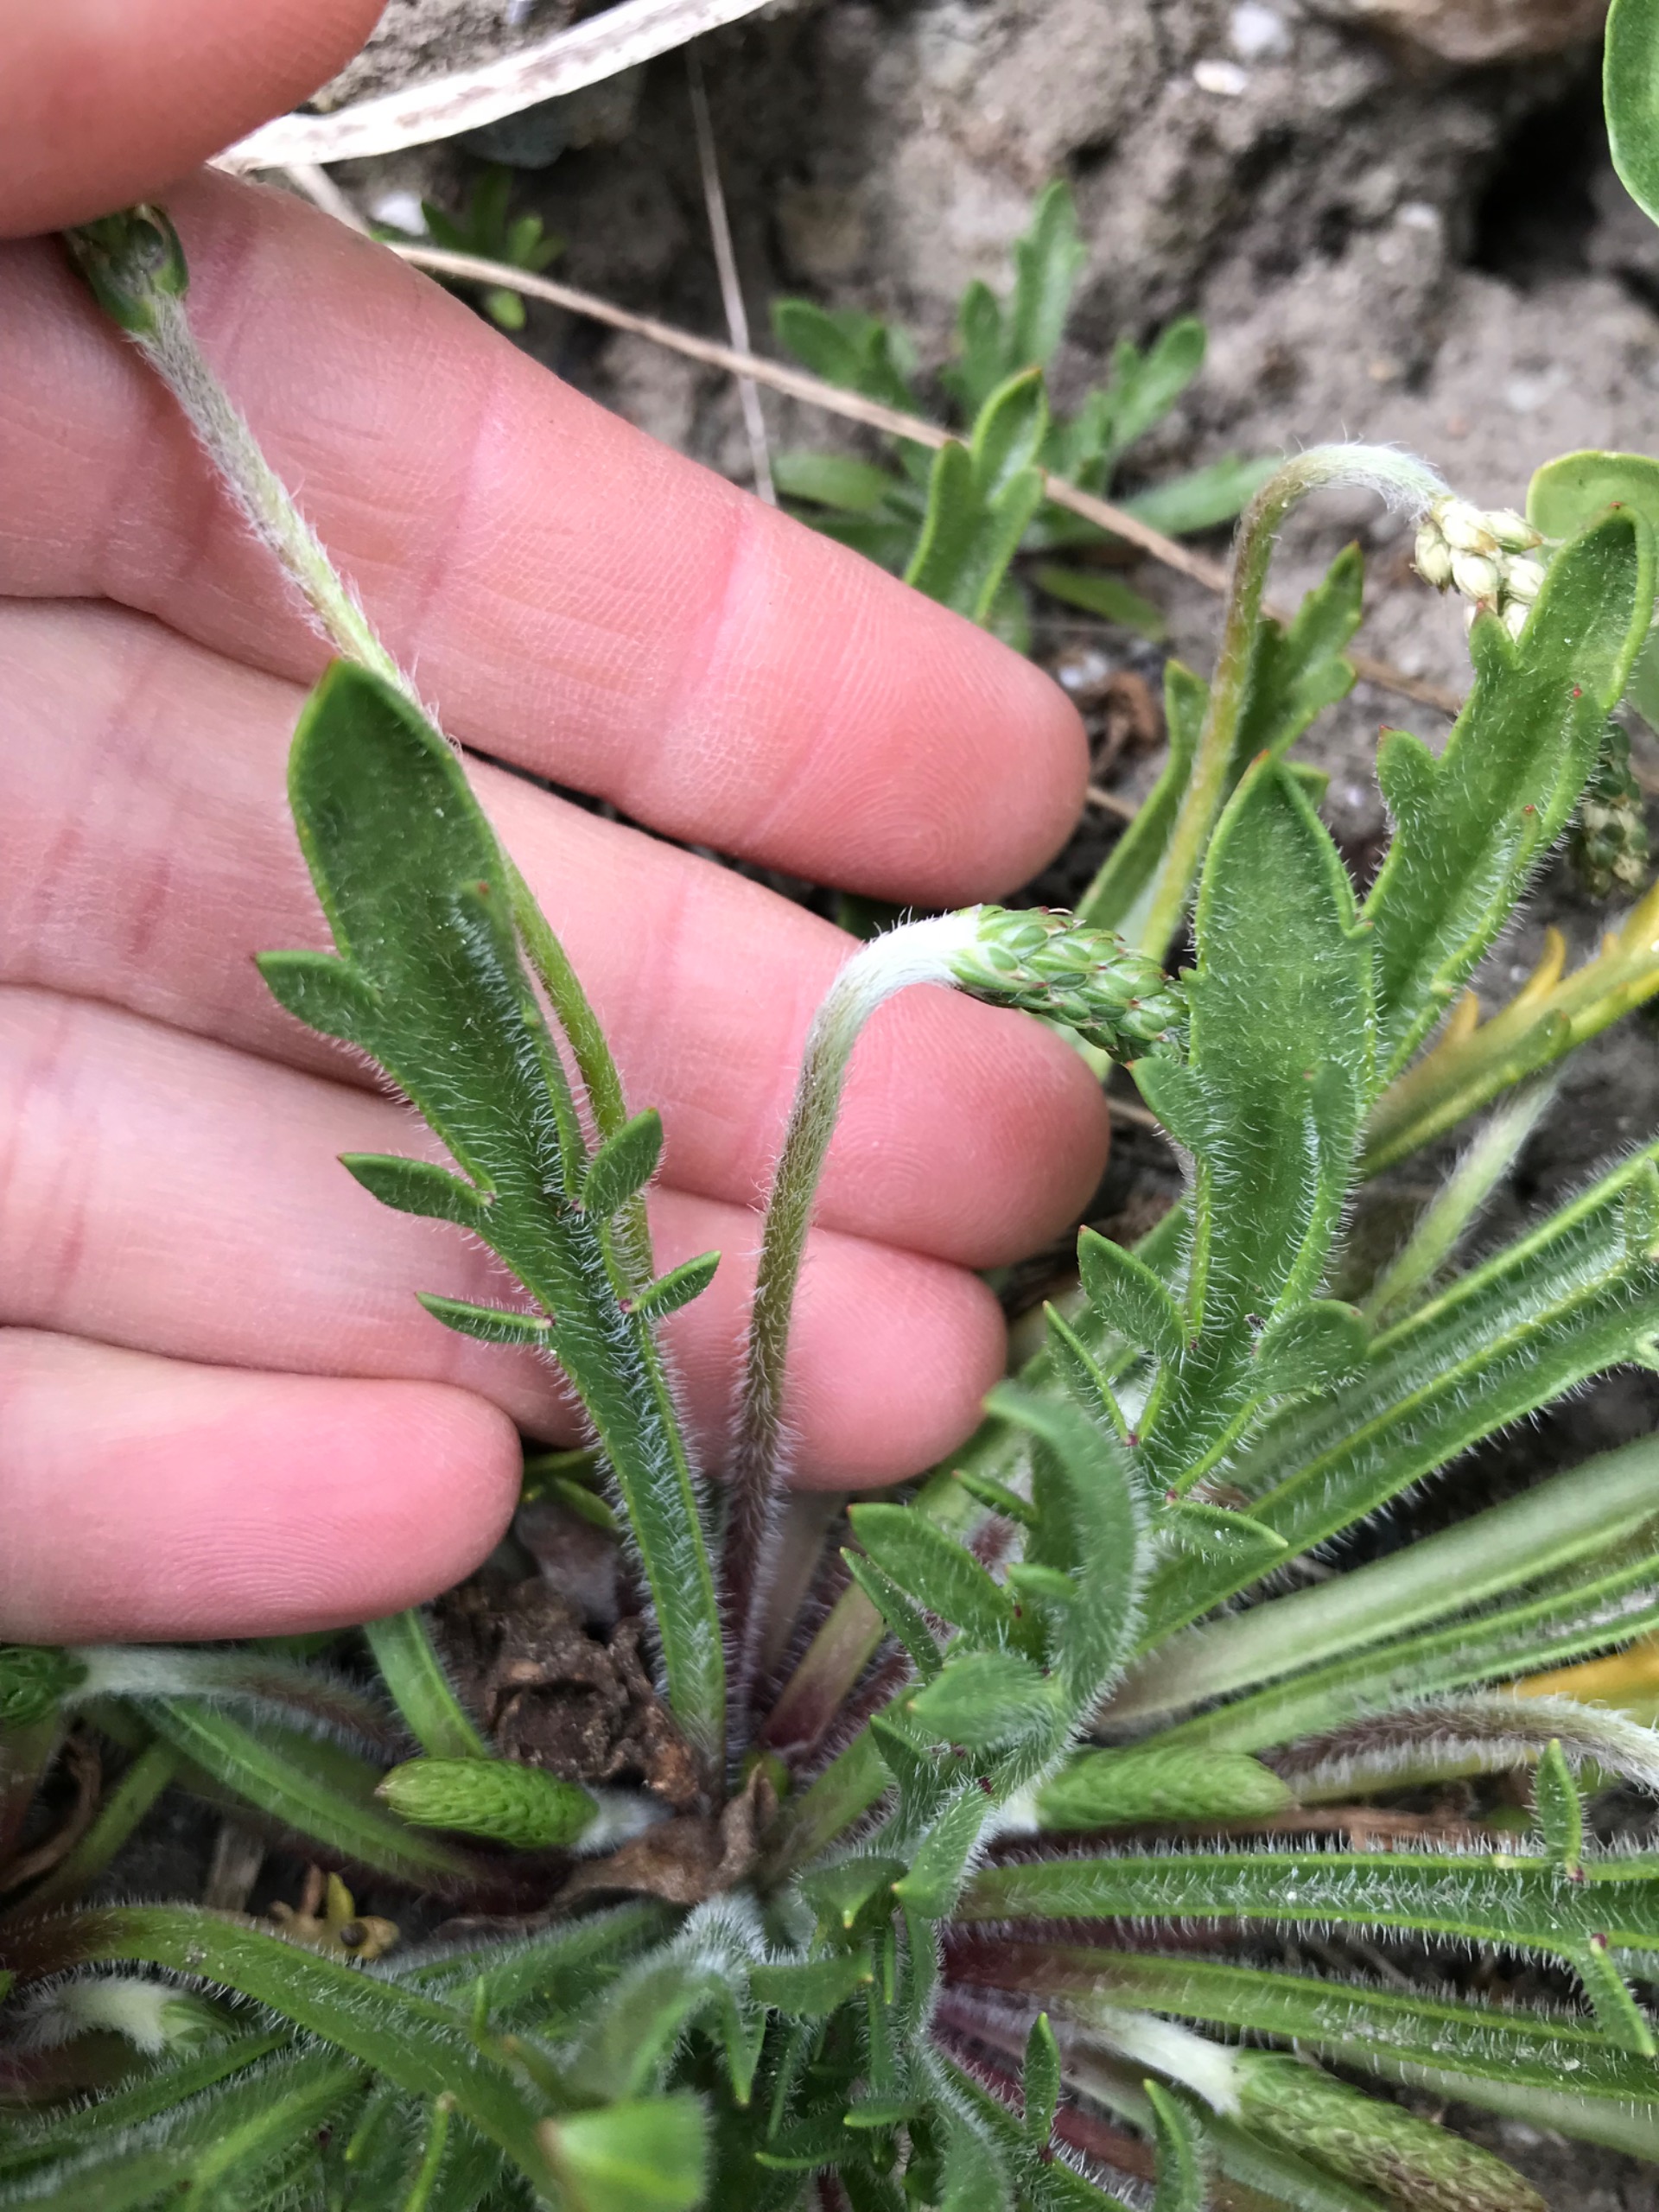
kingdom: Plantae
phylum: Tracheophyta
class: Magnoliopsida
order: Lamiales
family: Plantaginaceae
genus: Plantago
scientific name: Plantago coronopus
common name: Fliget vejbred
